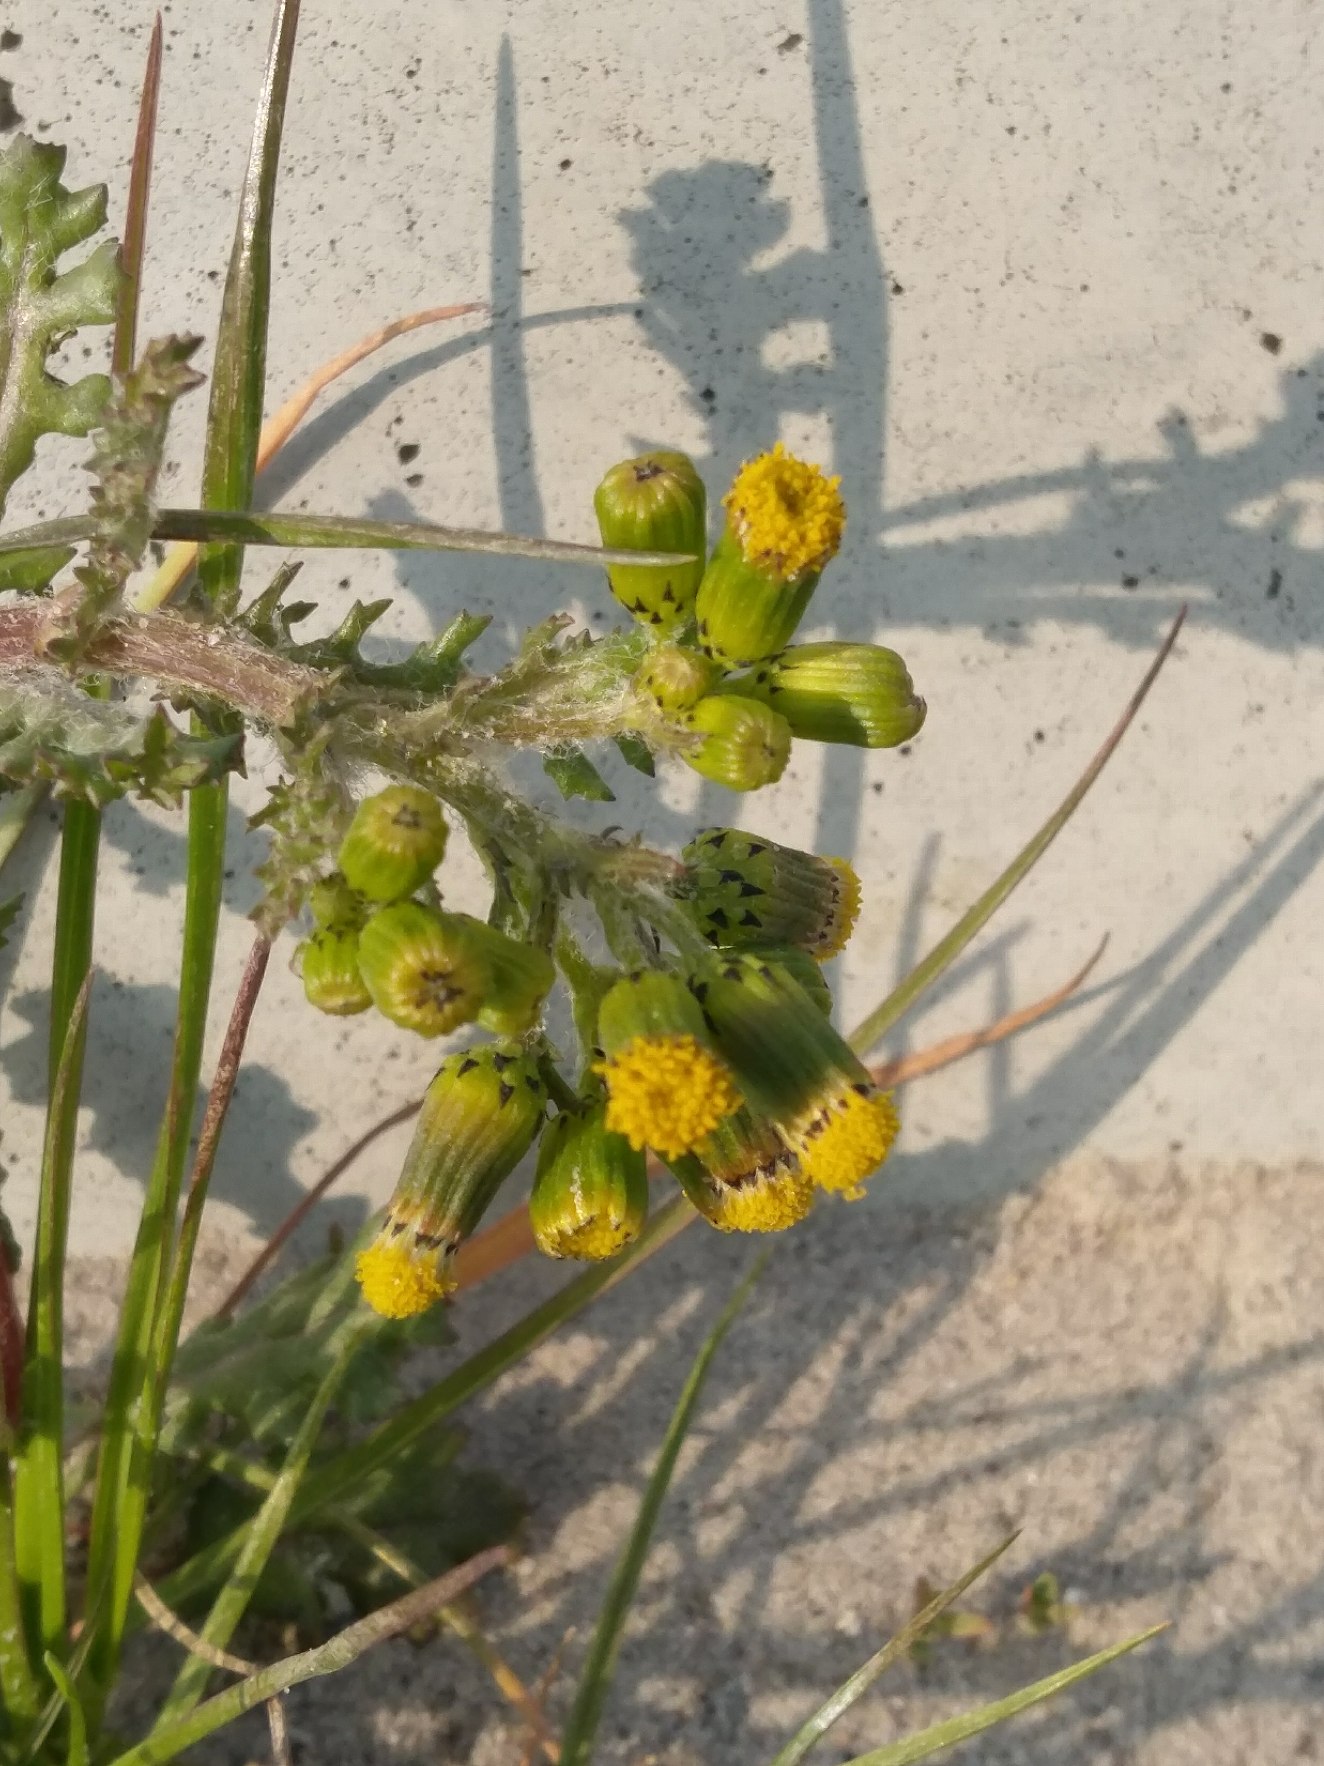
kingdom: Plantae
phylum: Tracheophyta
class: Magnoliopsida
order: Asterales
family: Asteraceae
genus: Senecio
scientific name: Senecio vulgaris
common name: Almindelig brandbæger
